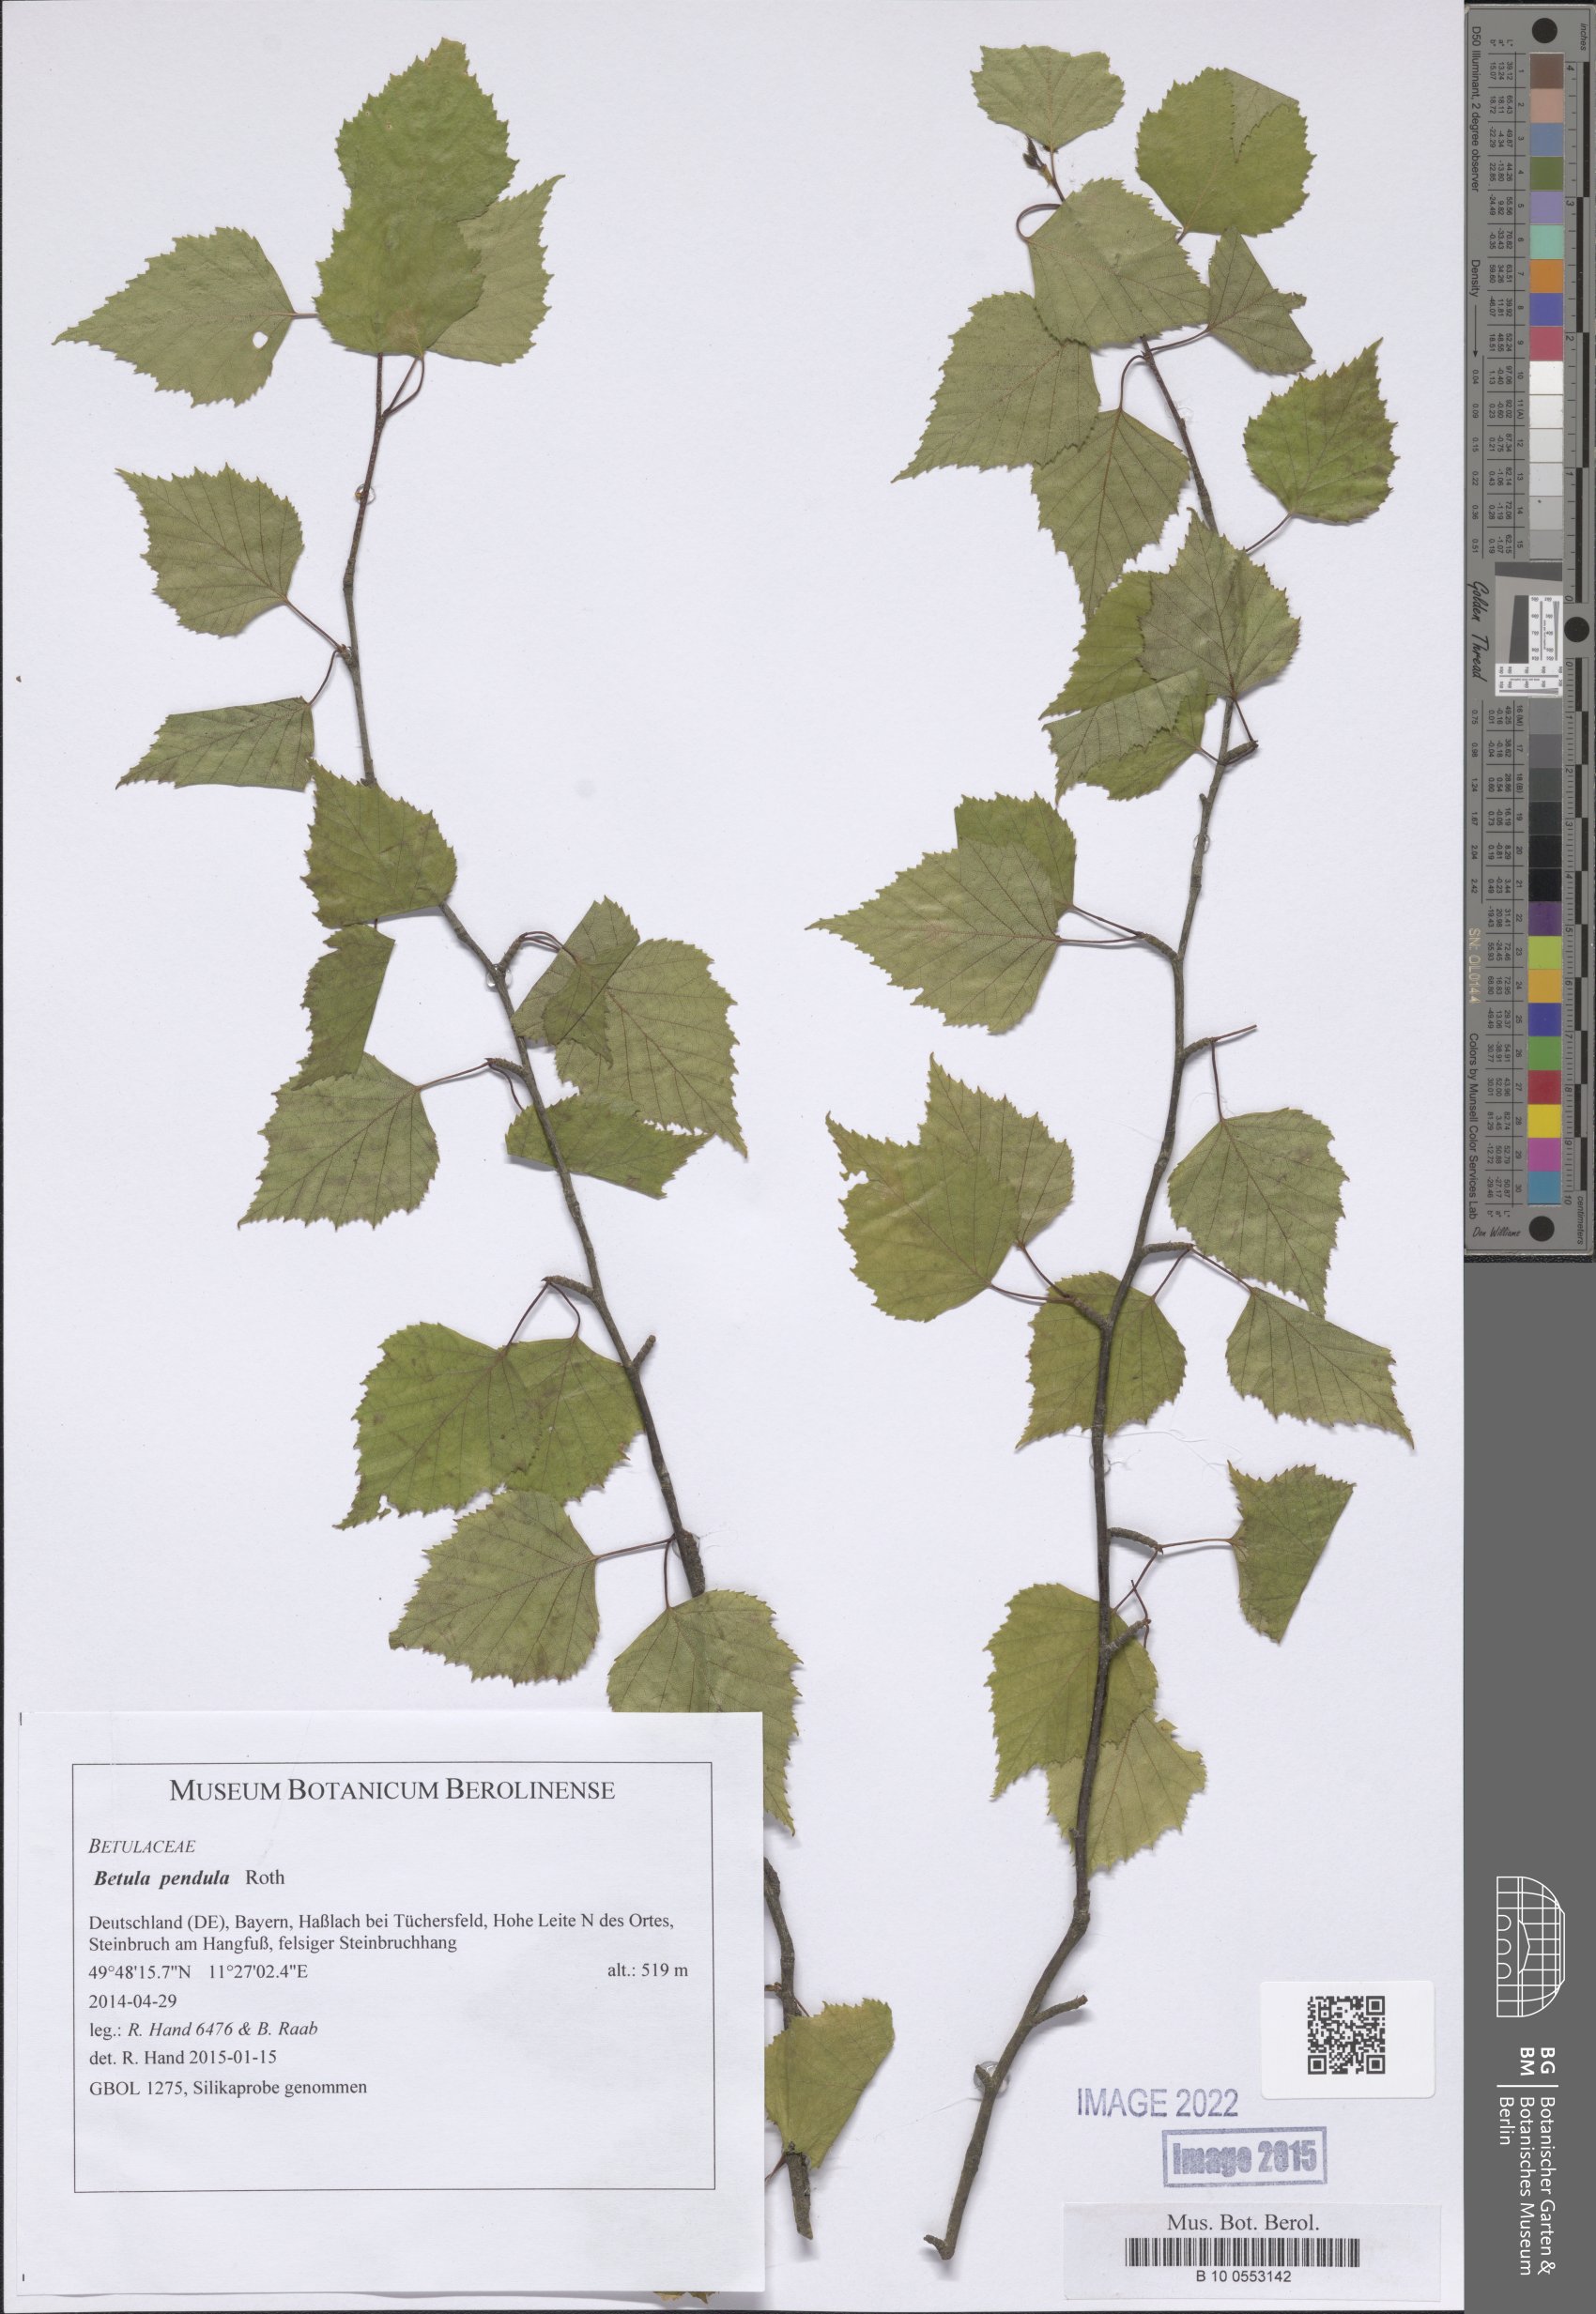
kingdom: Plantae
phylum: Tracheophyta
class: Magnoliopsida
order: Fagales
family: Betulaceae
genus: Betula
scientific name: Betula pendula
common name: Silver birch
